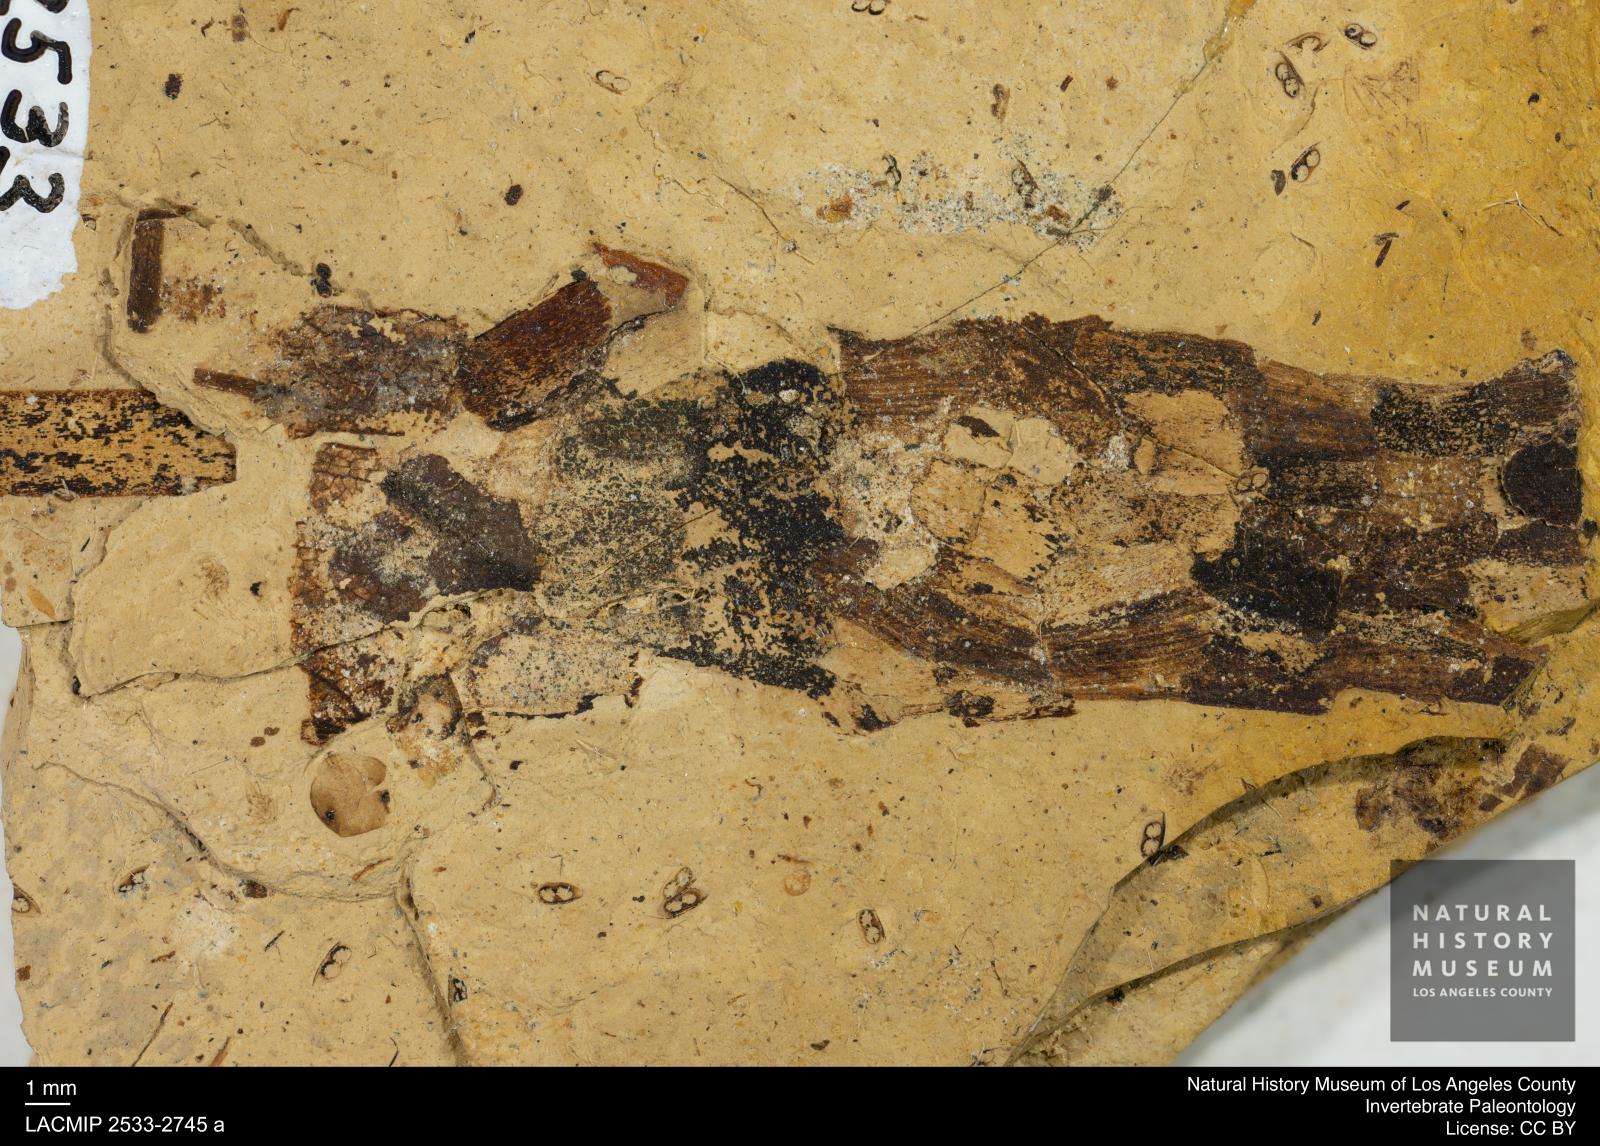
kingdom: Animalia
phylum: Arthropoda
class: Insecta
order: Trichoptera
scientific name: Trichoptera
